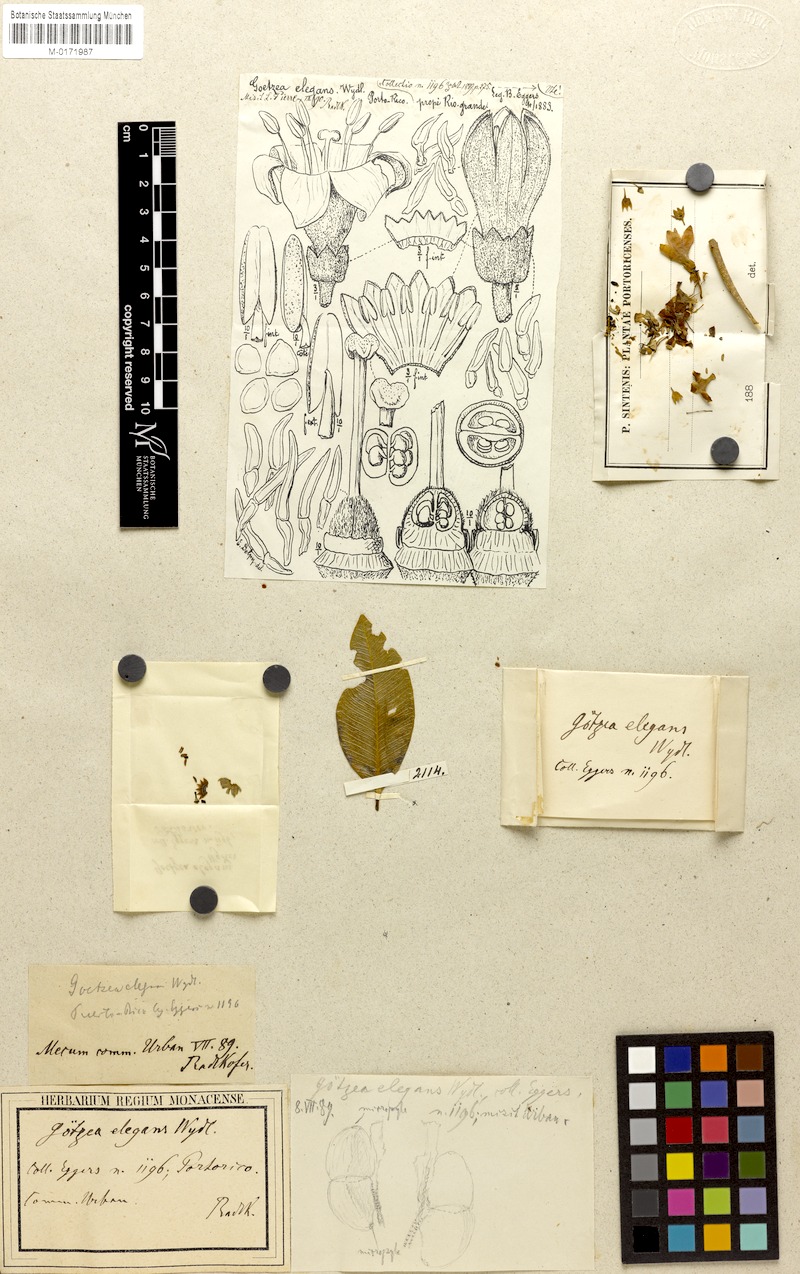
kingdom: Plantae
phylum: Tracheophyta
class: Magnoliopsida
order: Solanales
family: Solanaceae
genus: Goetzea
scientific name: Goetzea elegans
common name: Beautiful goetzea
